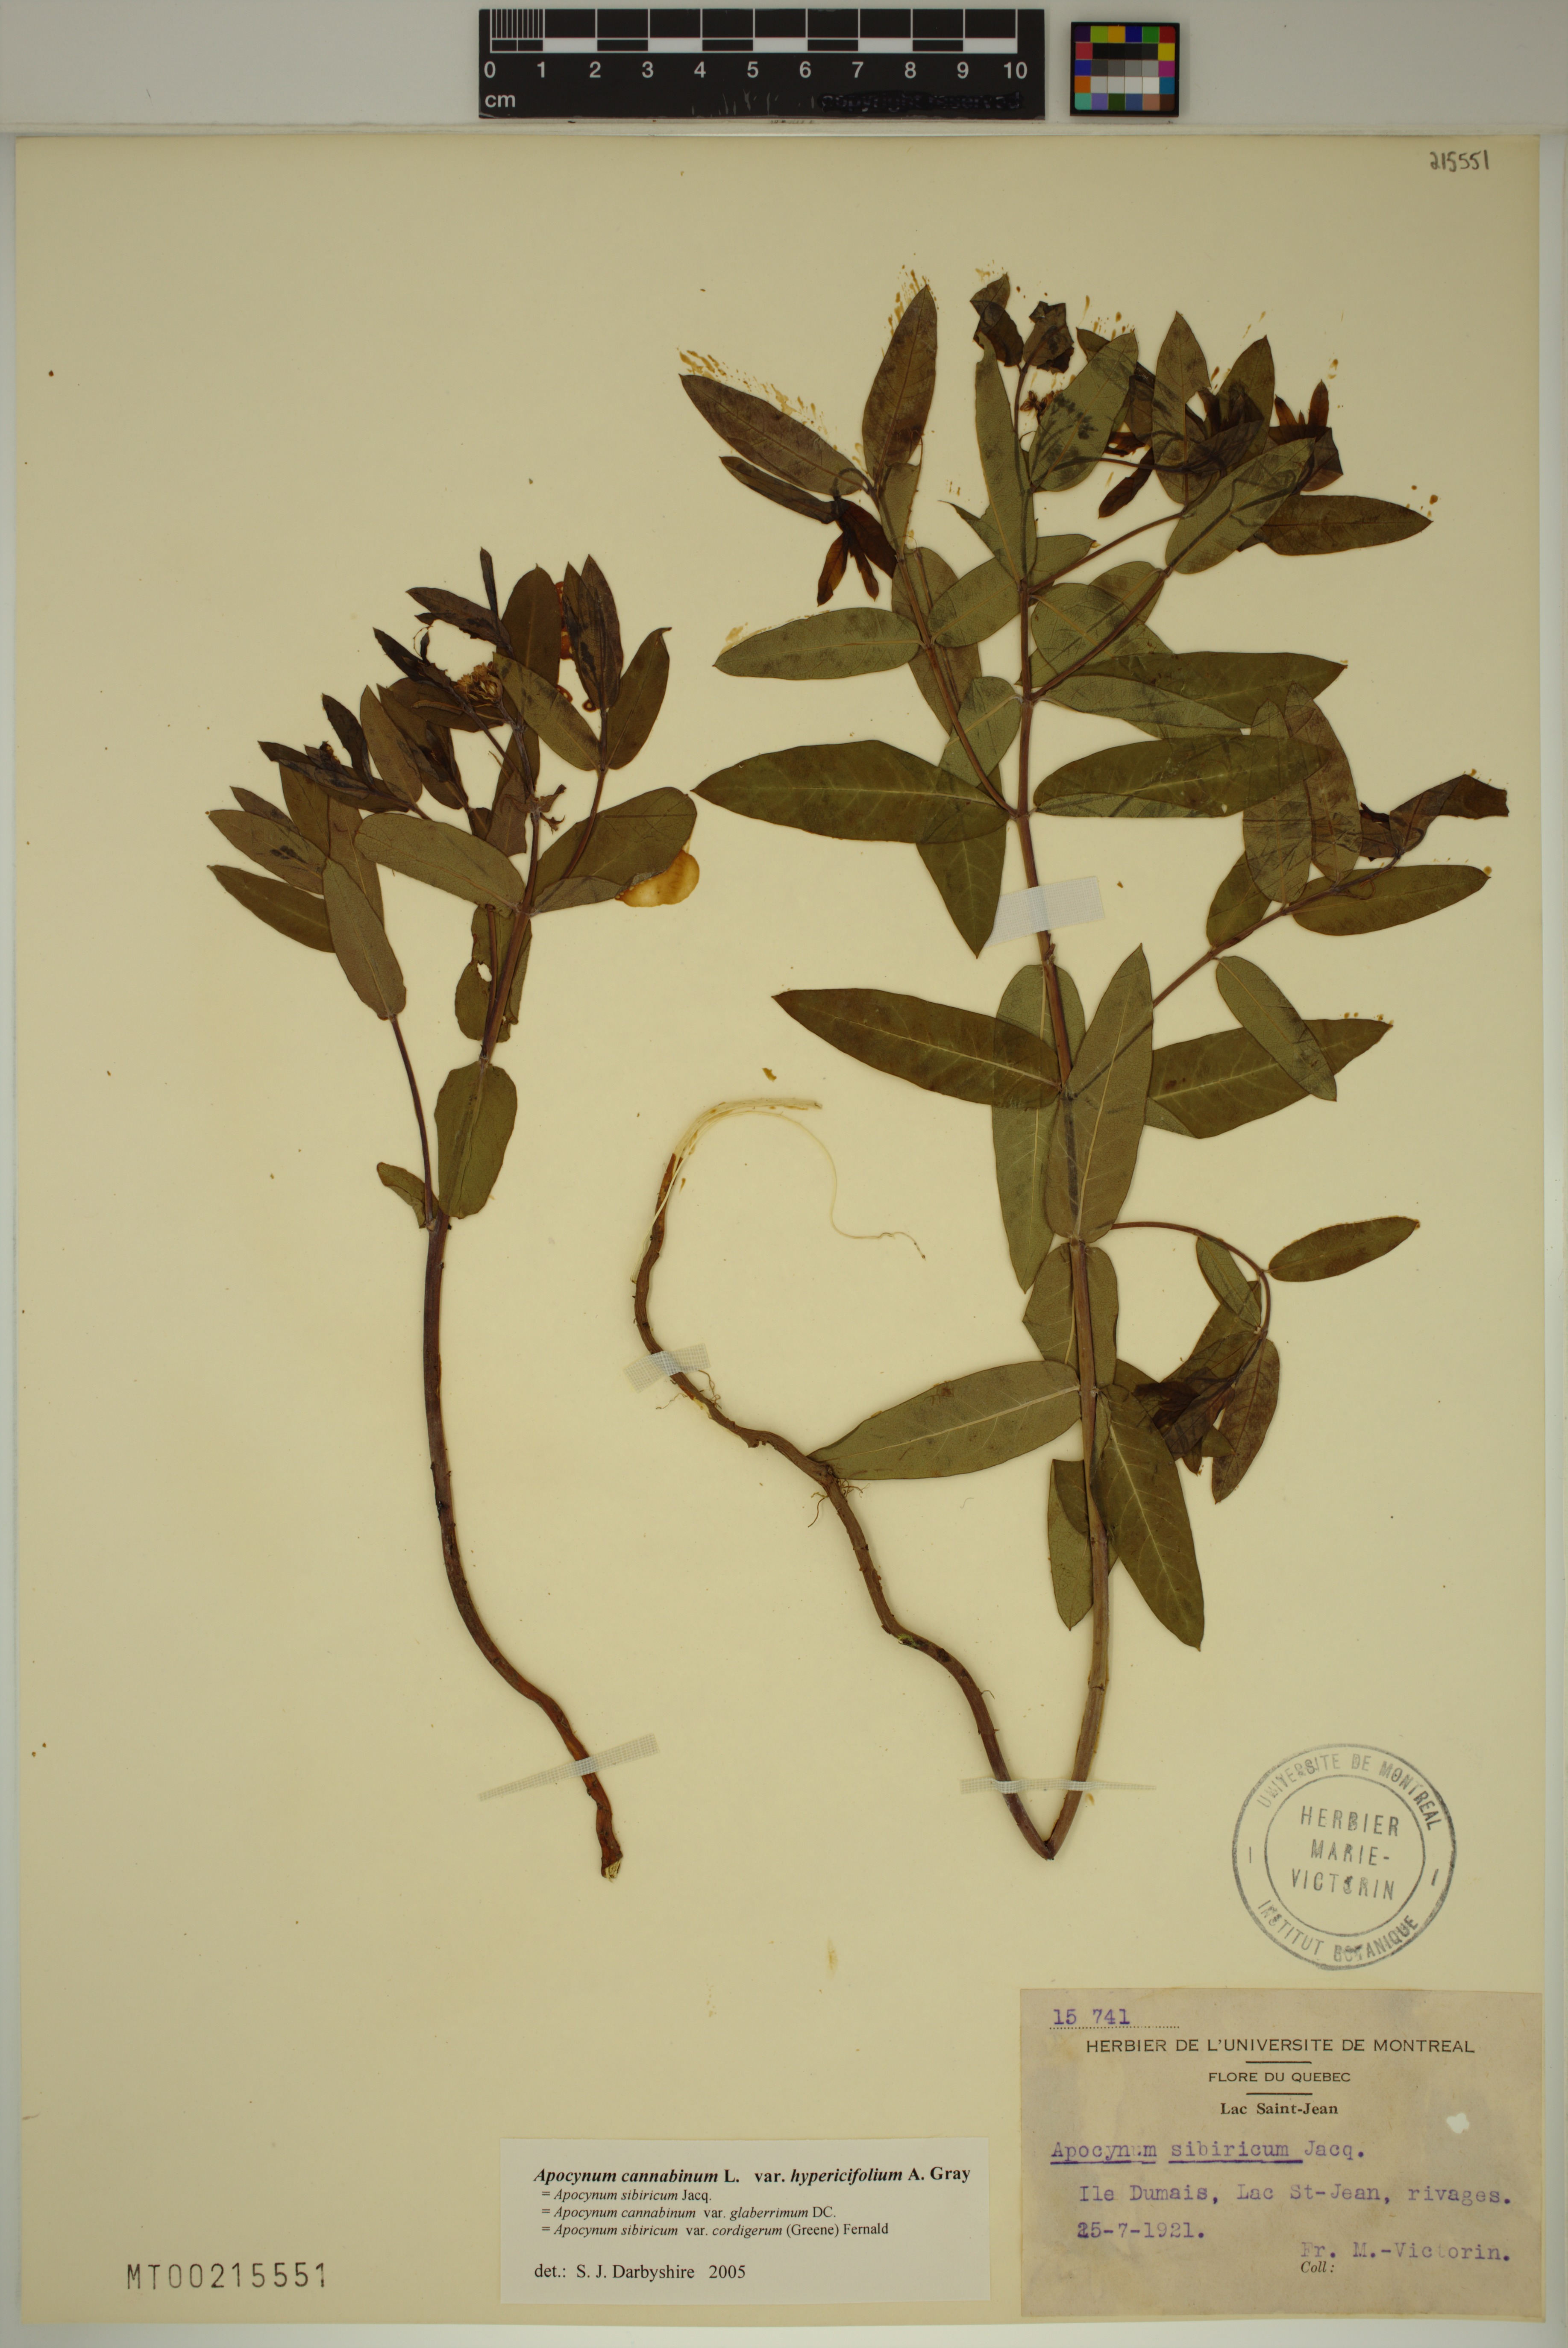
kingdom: Plantae
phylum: Tracheophyta
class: Magnoliopsida
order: Gentianales
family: Apocynaceae
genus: Apocynum
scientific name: Apocynum cannabinum
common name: Hemp dogbane
